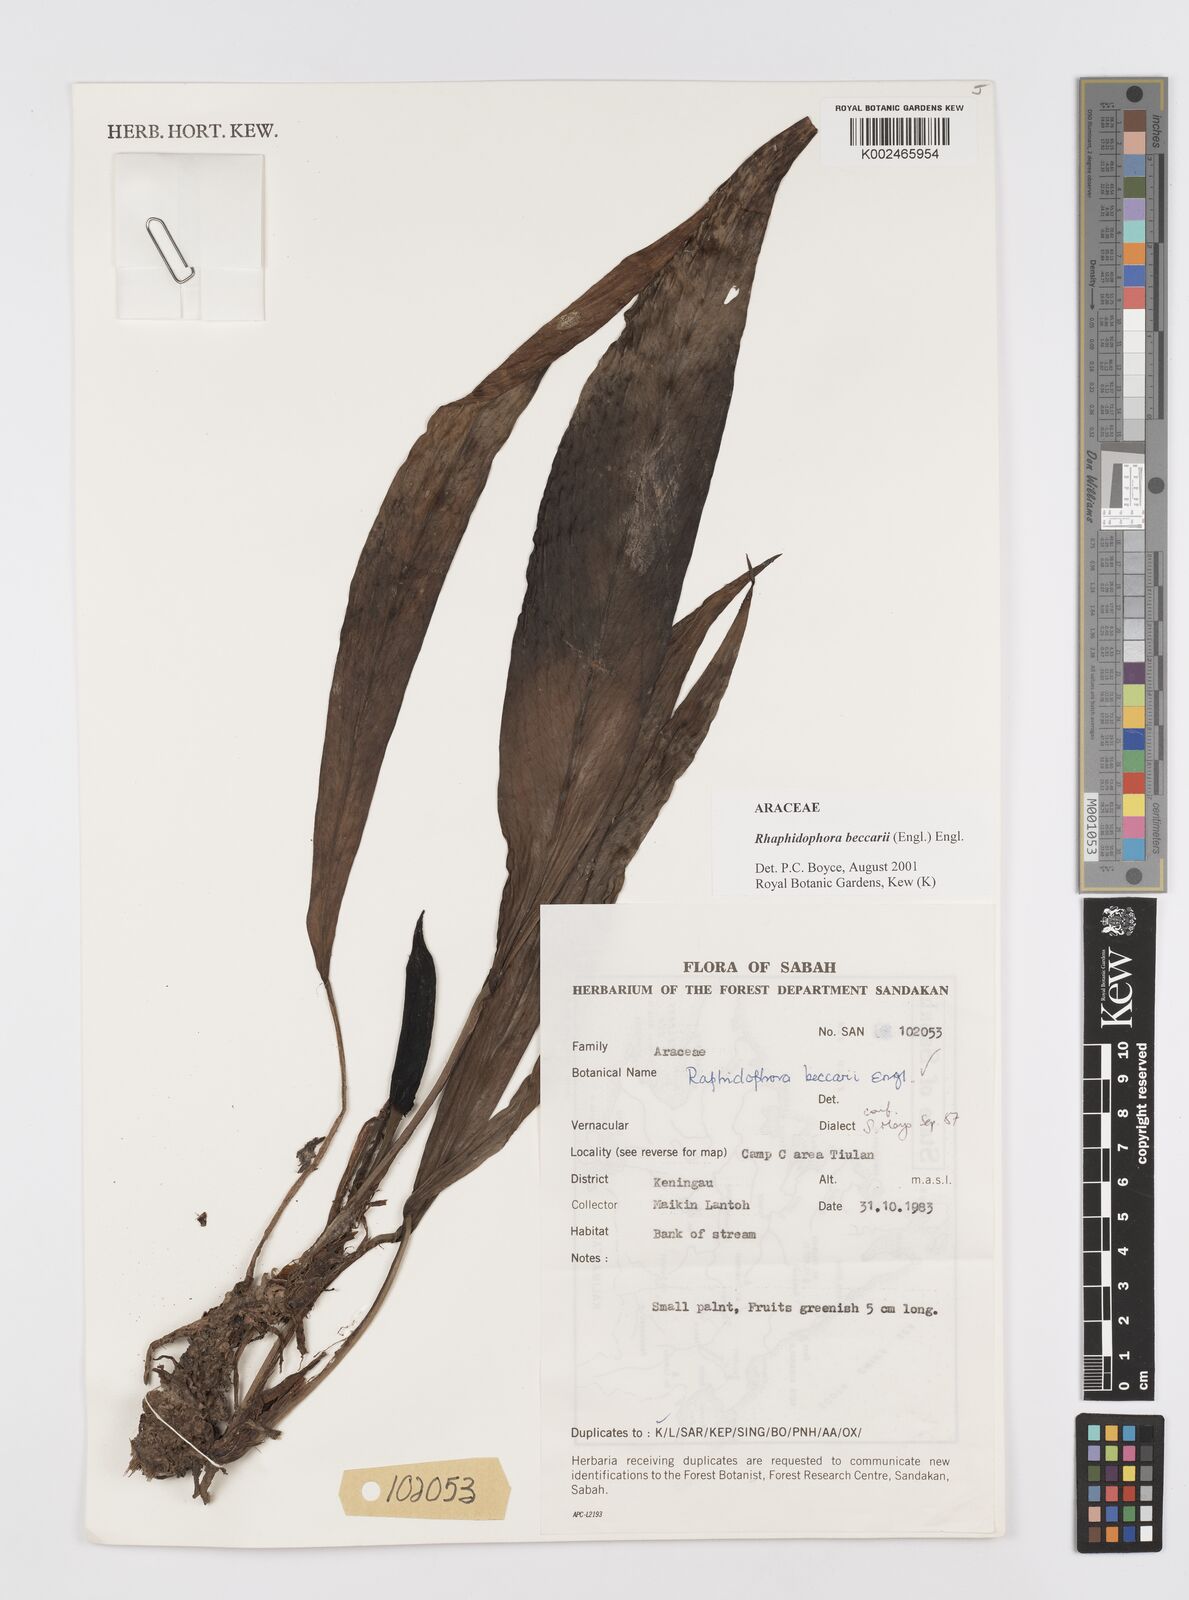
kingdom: Plantae
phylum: Tracheophyta
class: Liliopsida
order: Alismatales
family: Araceae
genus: Rhaphidophora
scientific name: Rhaphidophora beccarii
